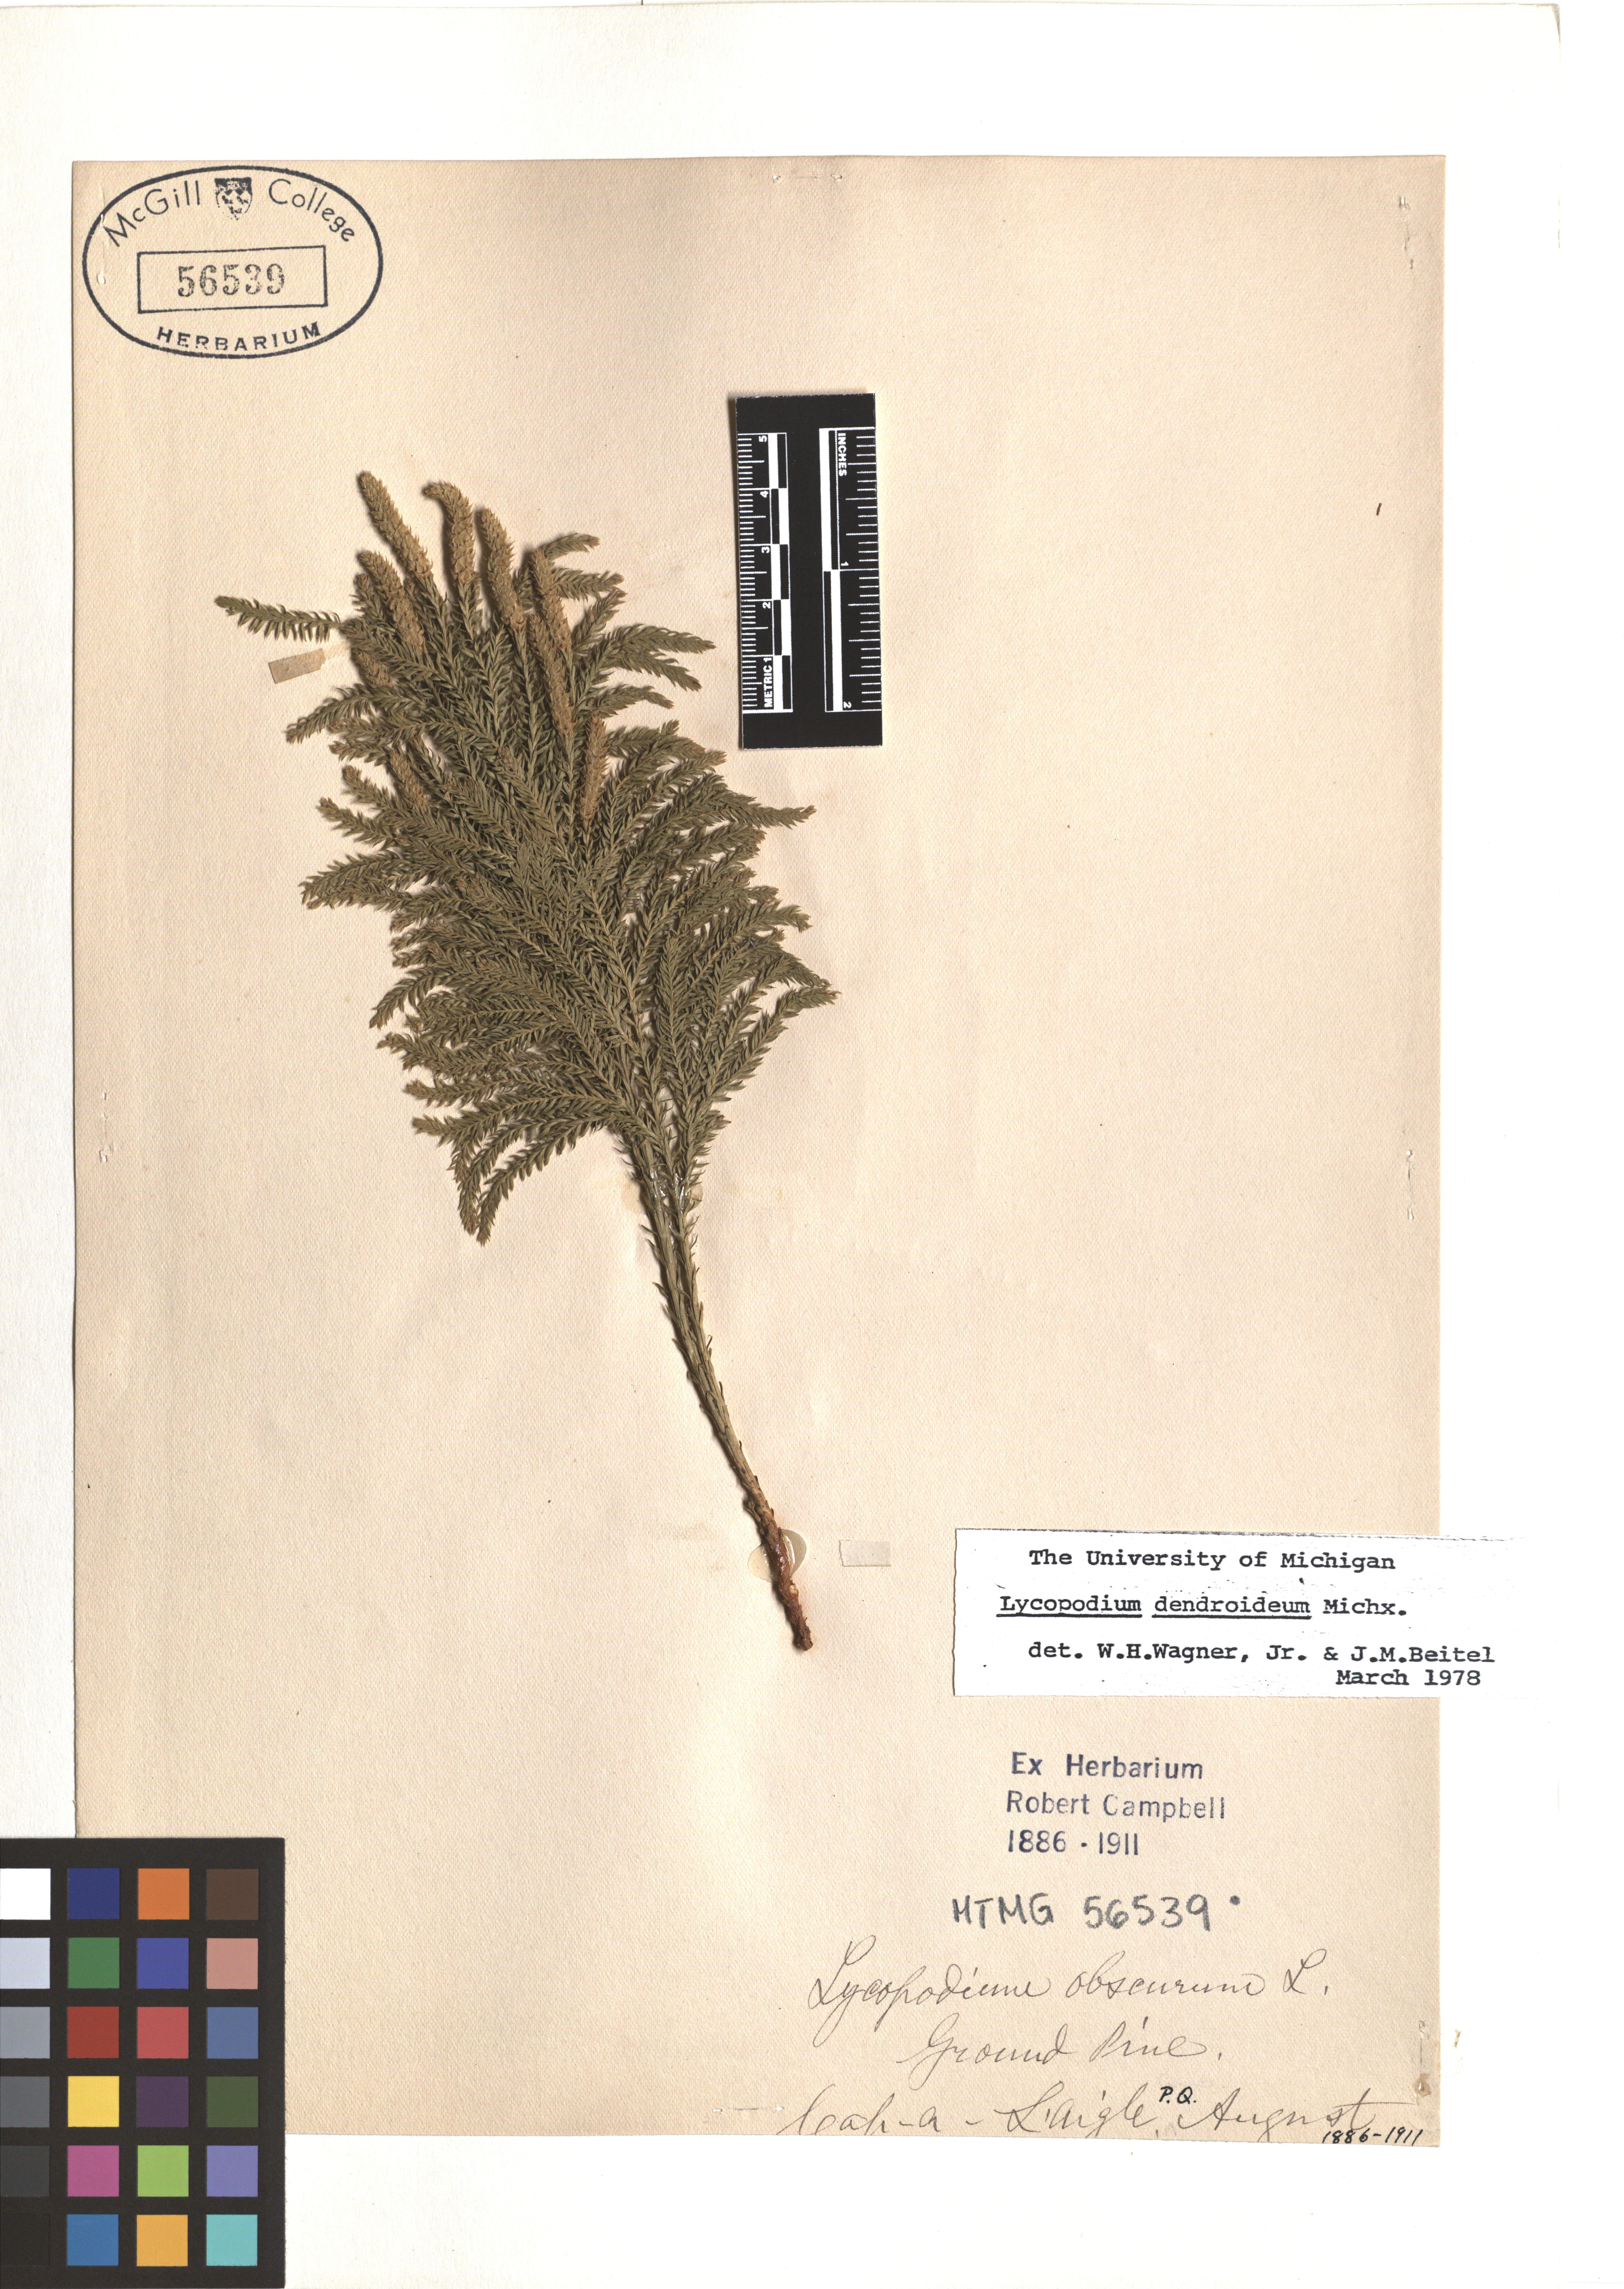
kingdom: Plantae
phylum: Tracheophyta
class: Lycopodiopsida
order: Lycopodiales
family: Lycopodiaceae
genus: Dendrolycopodium
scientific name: Dendrolycopodium dendroideum
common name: Northern tree-clubmoss
